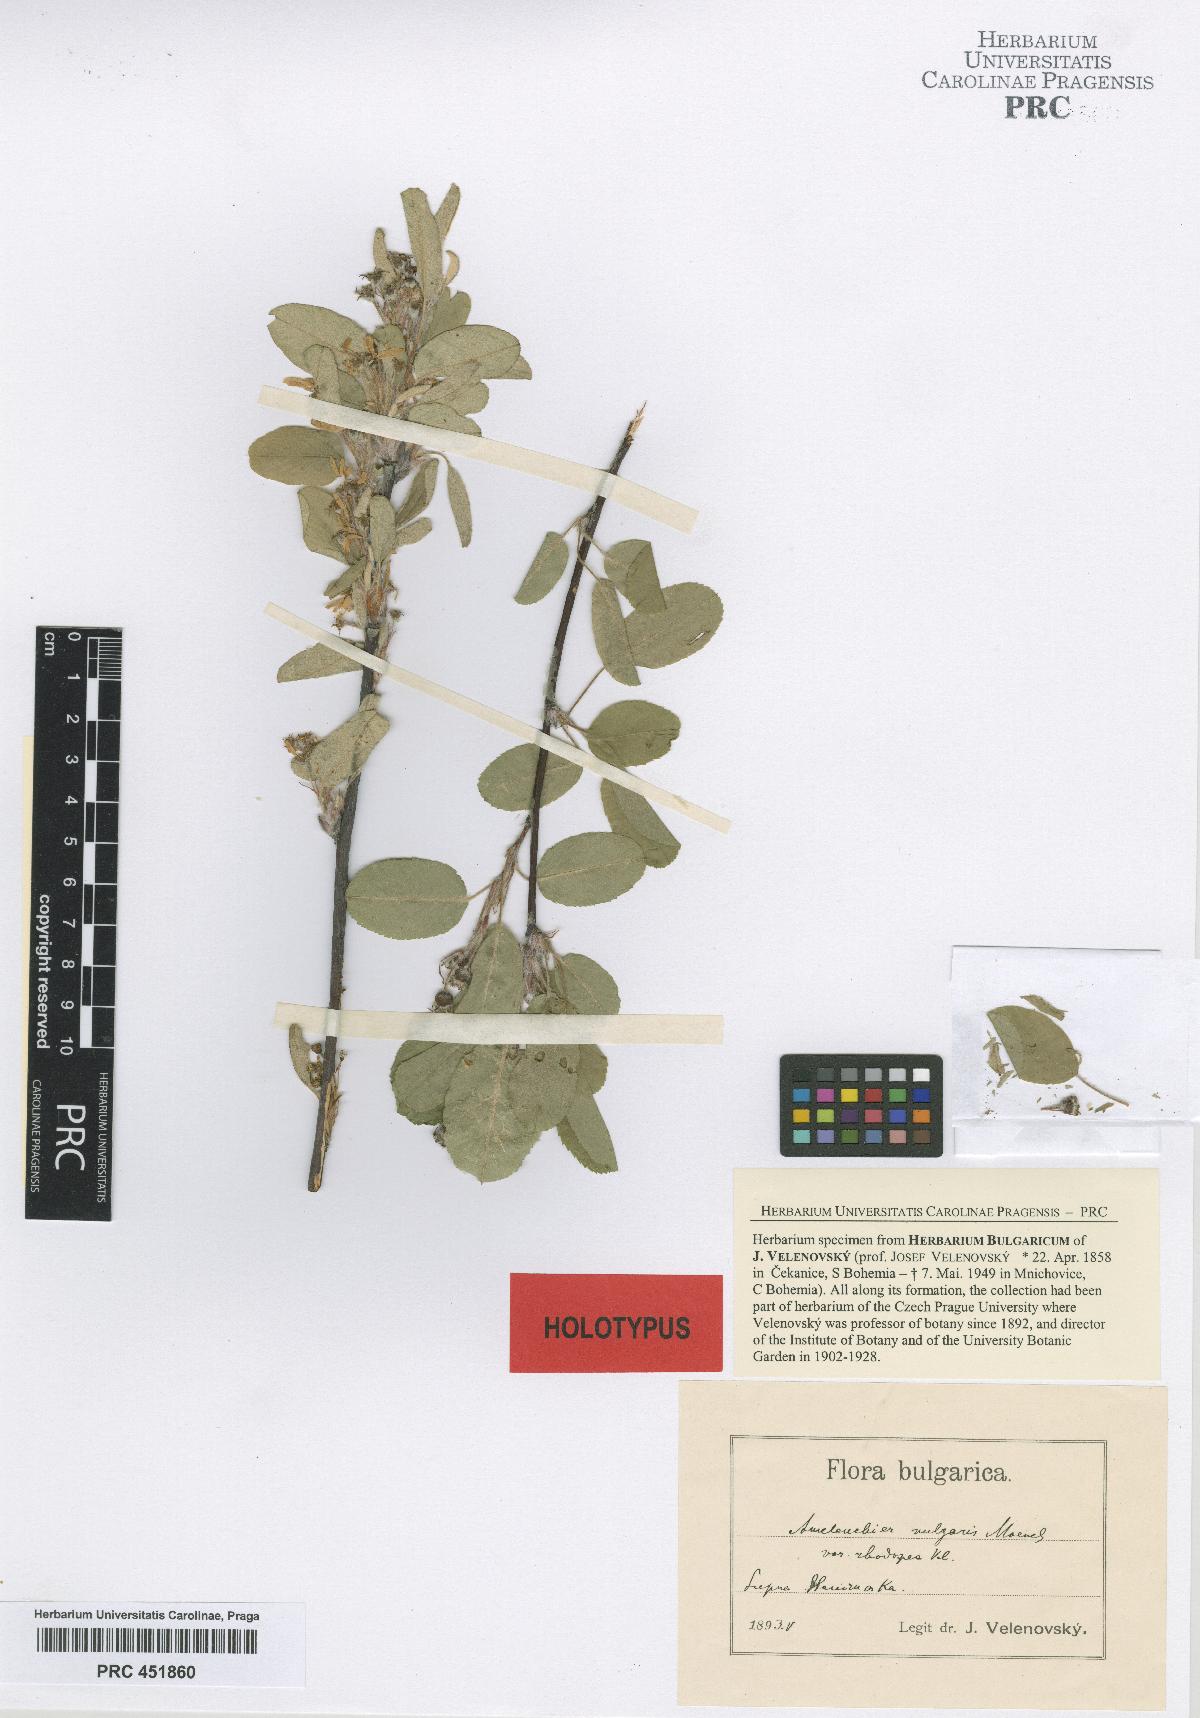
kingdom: Plantae
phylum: Tracheophyta
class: Magnoliopsida
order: Rosales
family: Rosaceae
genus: Amelanchier
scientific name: Amelanchier ovalis
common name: Serviceberry
